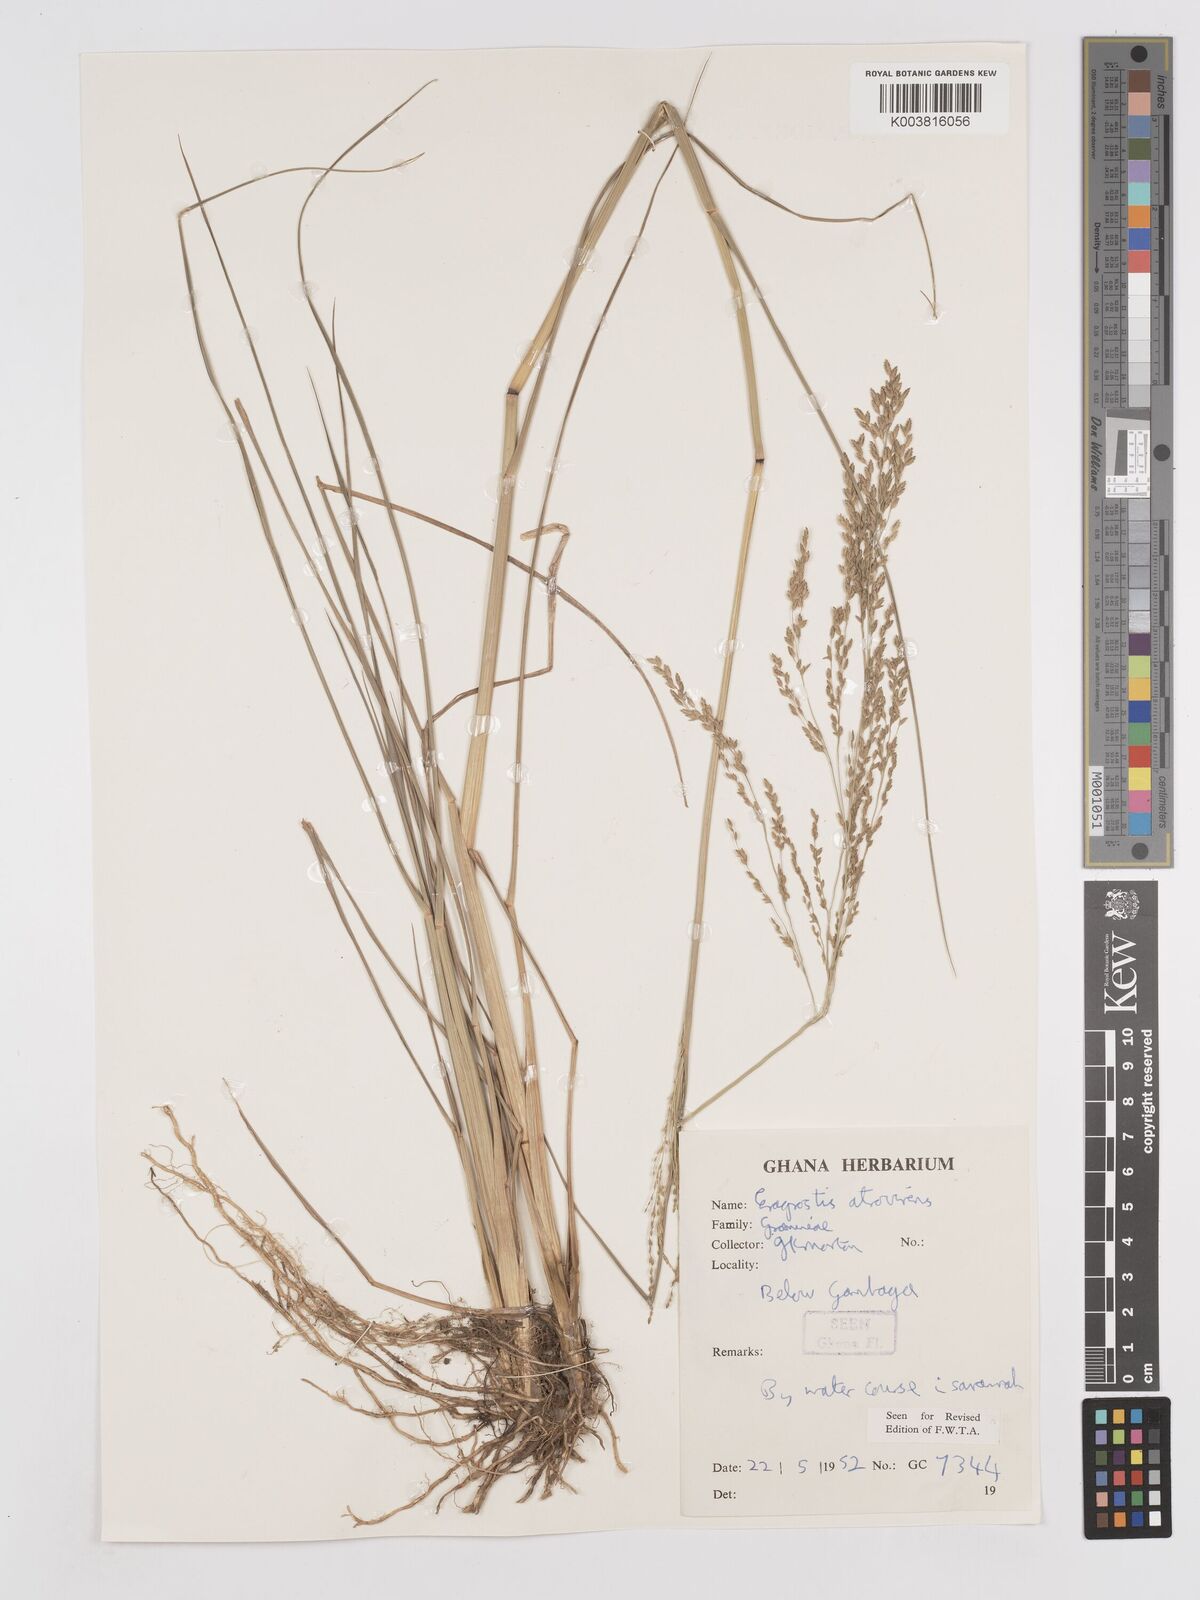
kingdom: Plantae
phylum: Tracheophyta
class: Liliopsida
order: Poales
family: Poaceae
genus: Eragrostis
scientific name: Eragrostis atrovirens
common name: Thalia lovegrass
